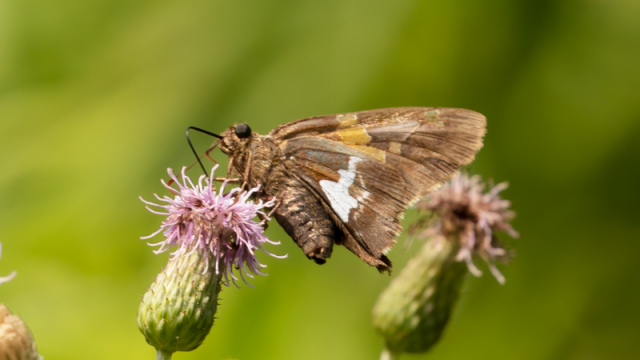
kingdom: Animalia
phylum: Arthropoda
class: Insecta
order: Lepidoptera
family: Hesperiidae
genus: Epargyreus
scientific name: Epargyreus clarus
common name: Silver-spotted Skipper
